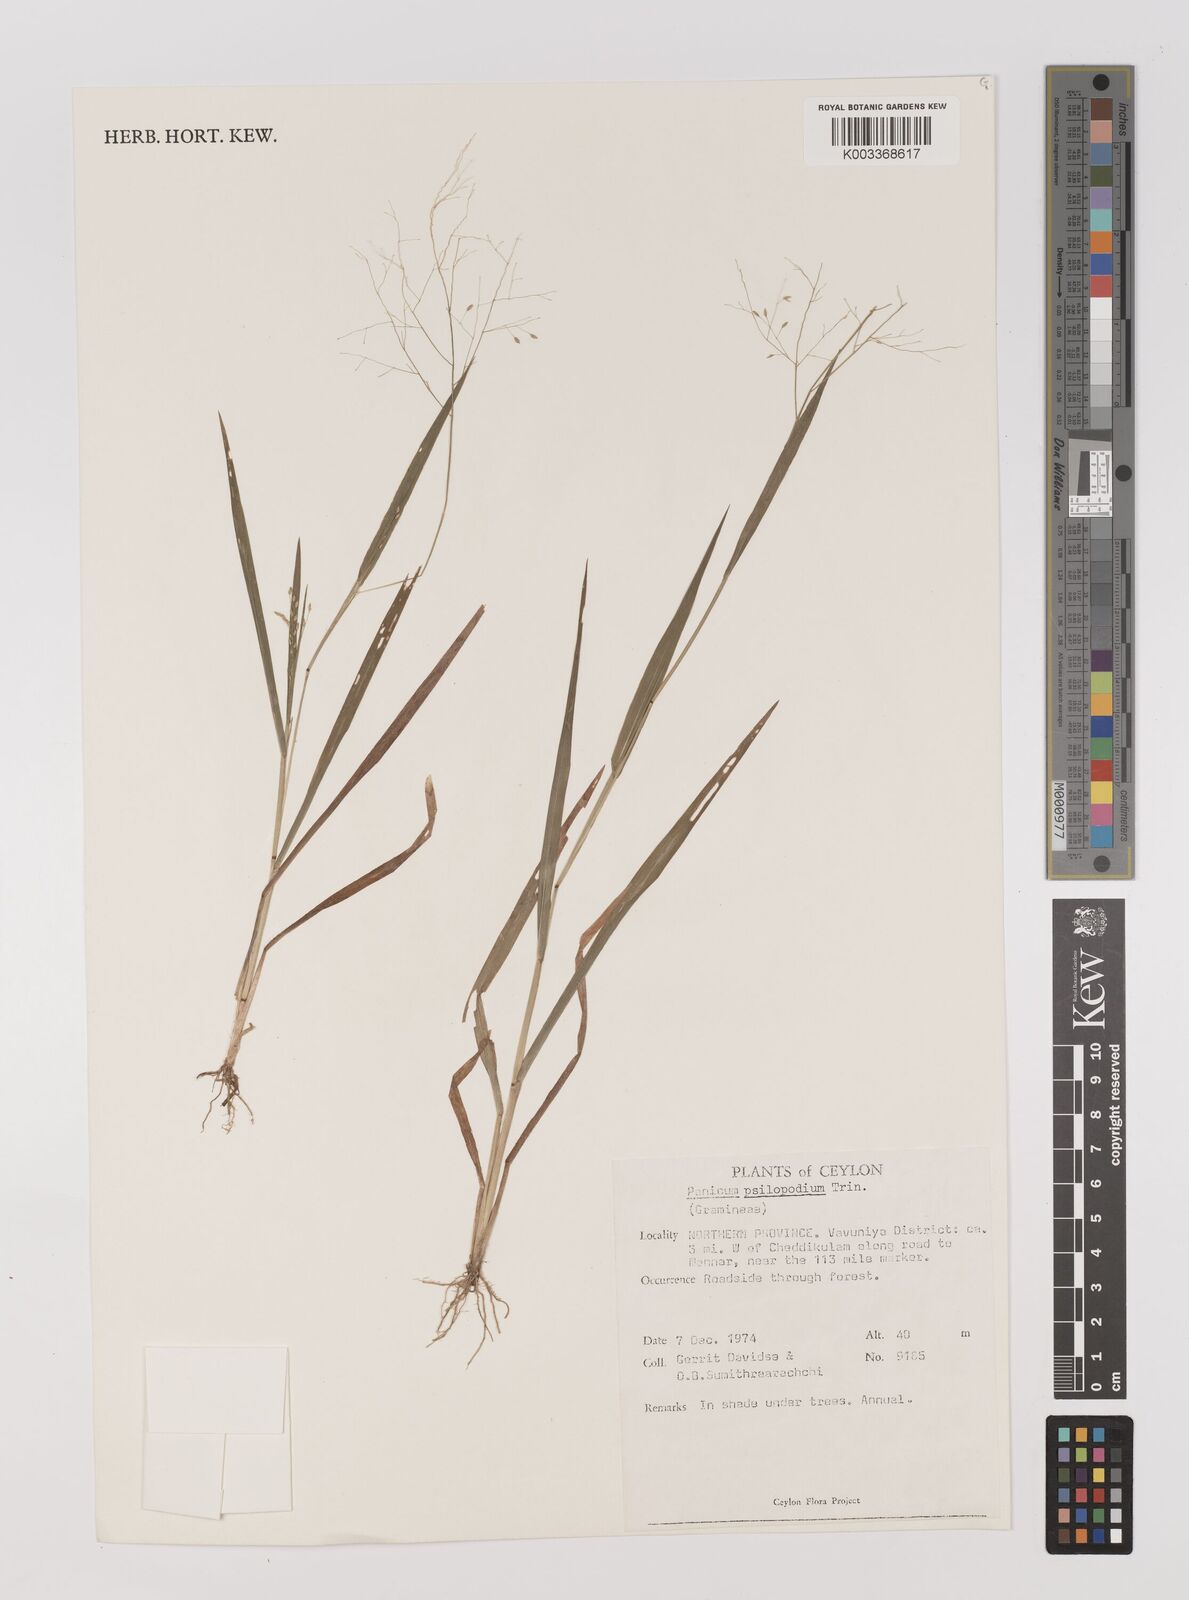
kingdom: Plantae
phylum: Tracheophyta
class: Liliopsida
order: Poales
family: Poaceae
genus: Panicum
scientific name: Panicum sumatrense
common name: Little millet
